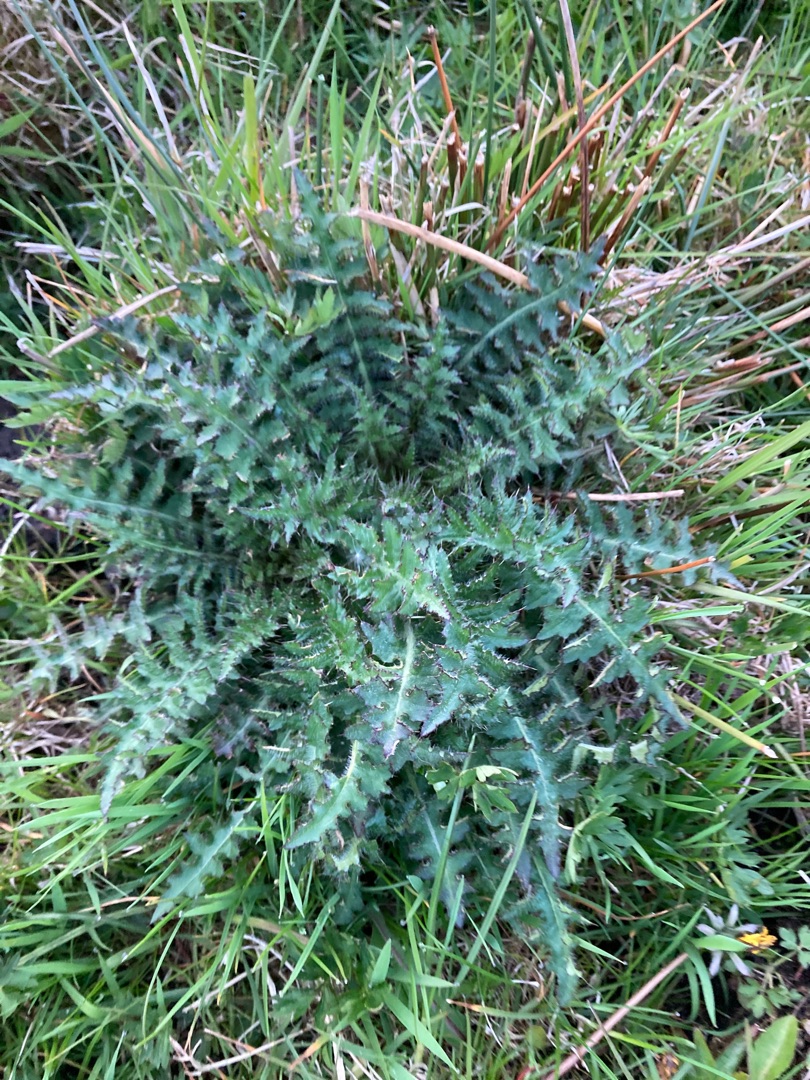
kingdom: Plantae
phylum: Tracheophyta
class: Magnoliopsida
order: Asterales
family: Asteraceae
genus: Cirsium
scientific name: Cirsium palustre
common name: Kær-tidsel
